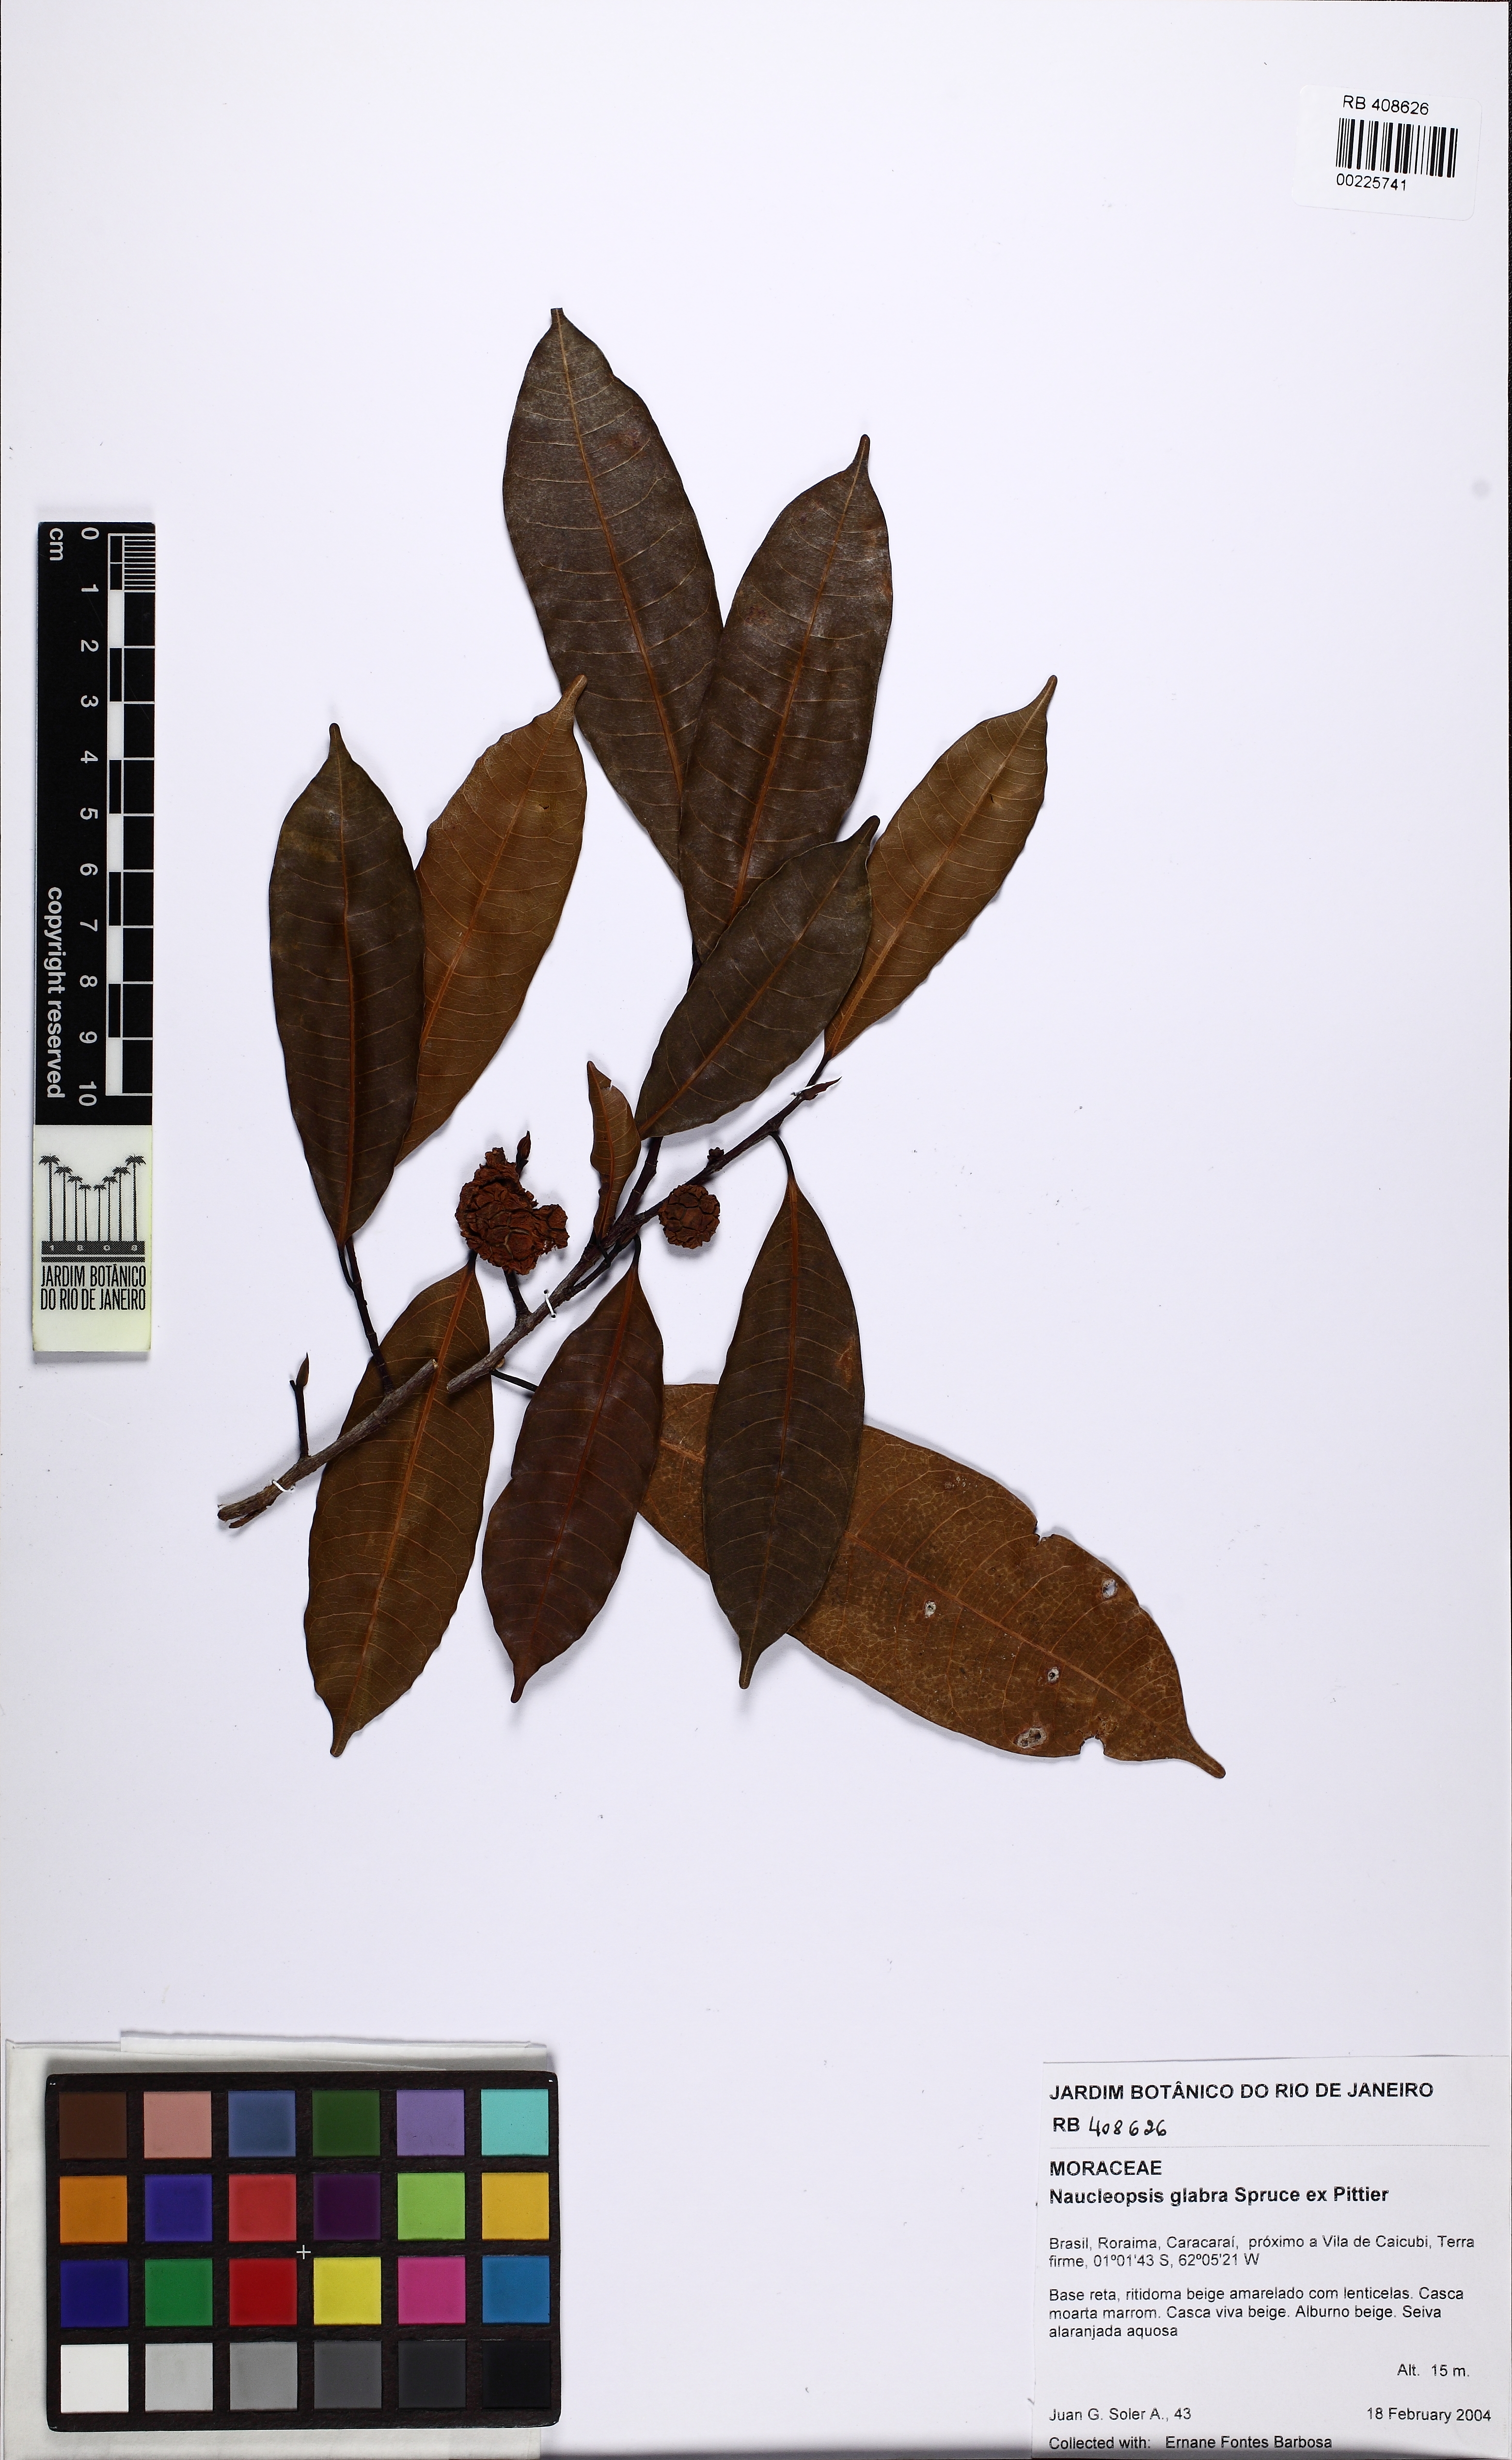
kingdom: Plantae
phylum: Tracheophyta
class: Magnoliopsida
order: Rosales
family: Moraceae
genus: Naucleopsis
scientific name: Naucleopsis glabra
